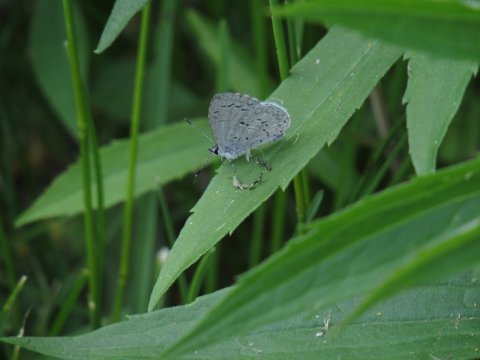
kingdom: Animalia
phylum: Arthropoda
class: Insecta
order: Lepidoptera
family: Lycaenidae
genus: Celastrina
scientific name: Celastrina
